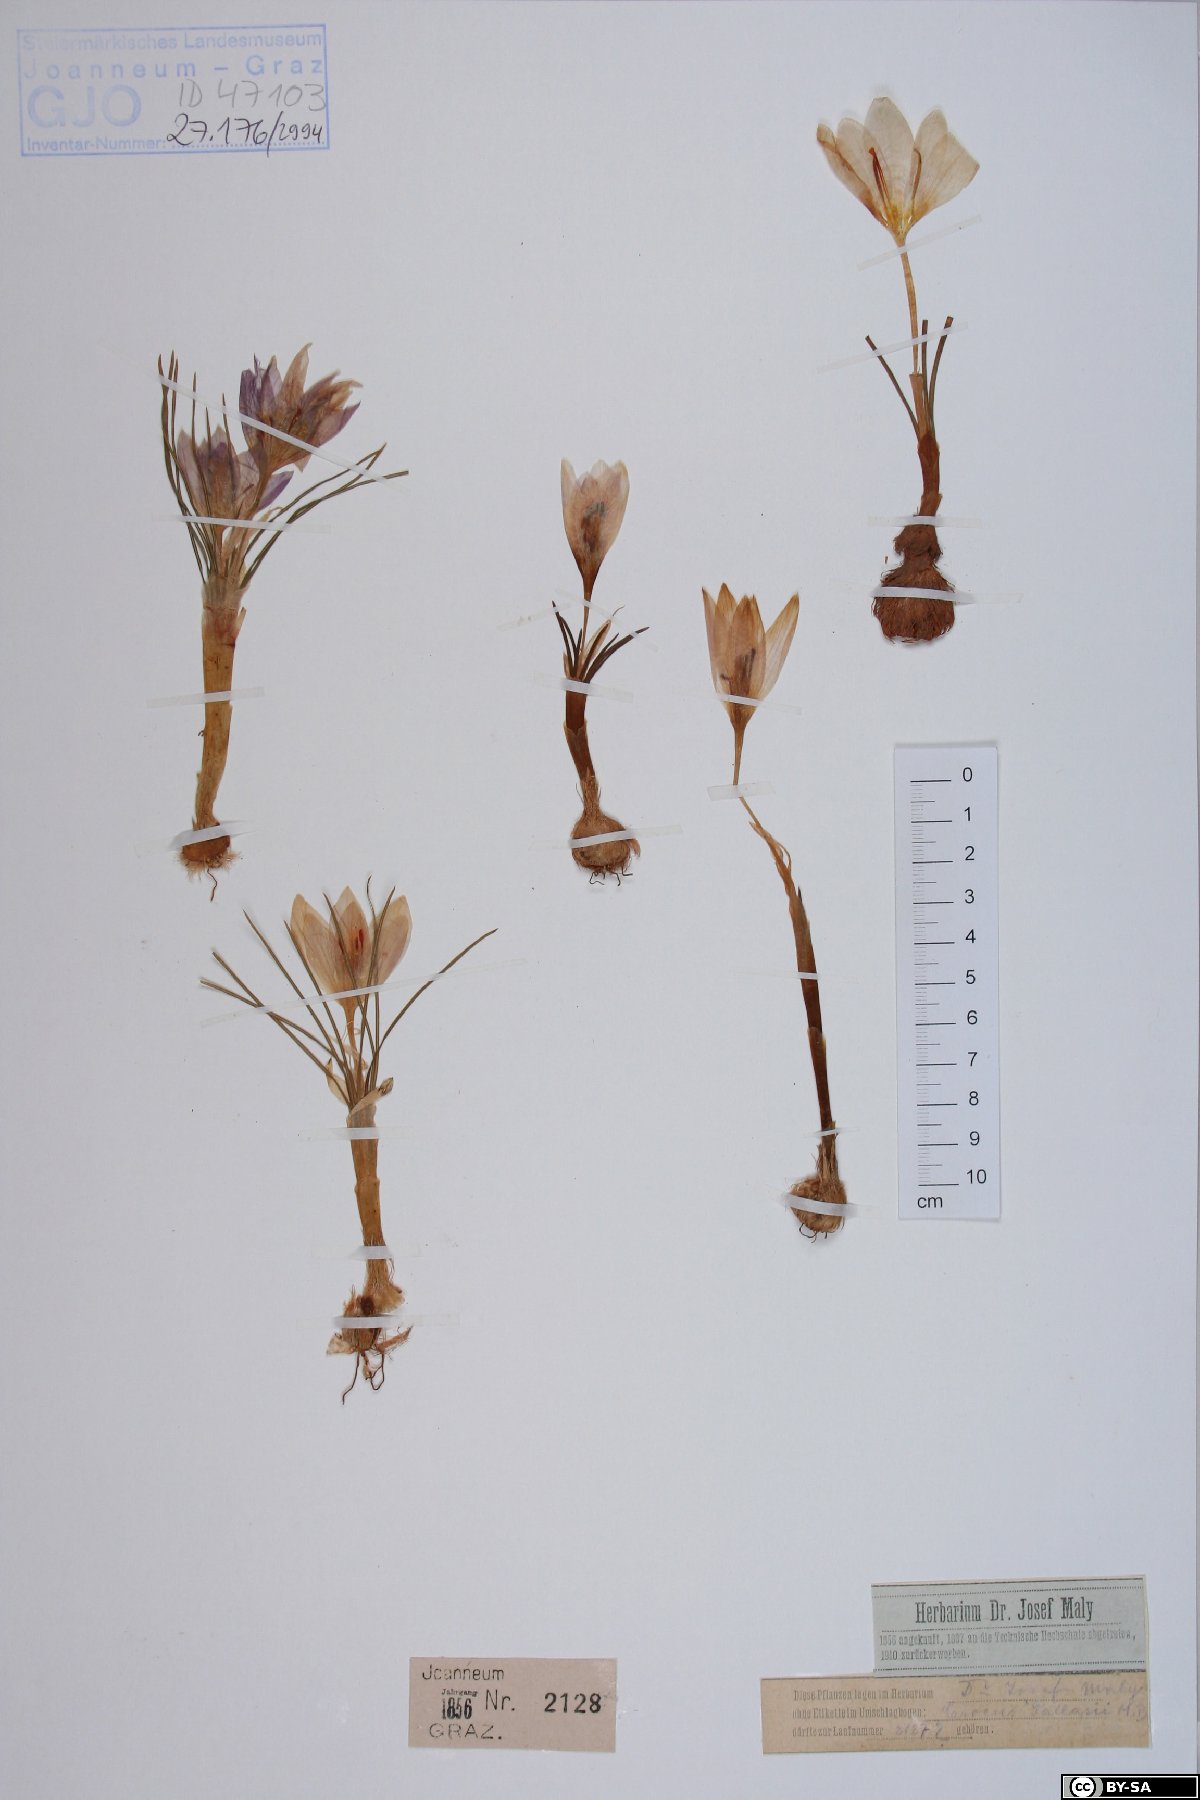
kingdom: Plantae
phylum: Tracheophyta
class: Liliopsida
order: Asparagales
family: Iridaceae
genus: Crocus
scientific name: Crocus pallasii
